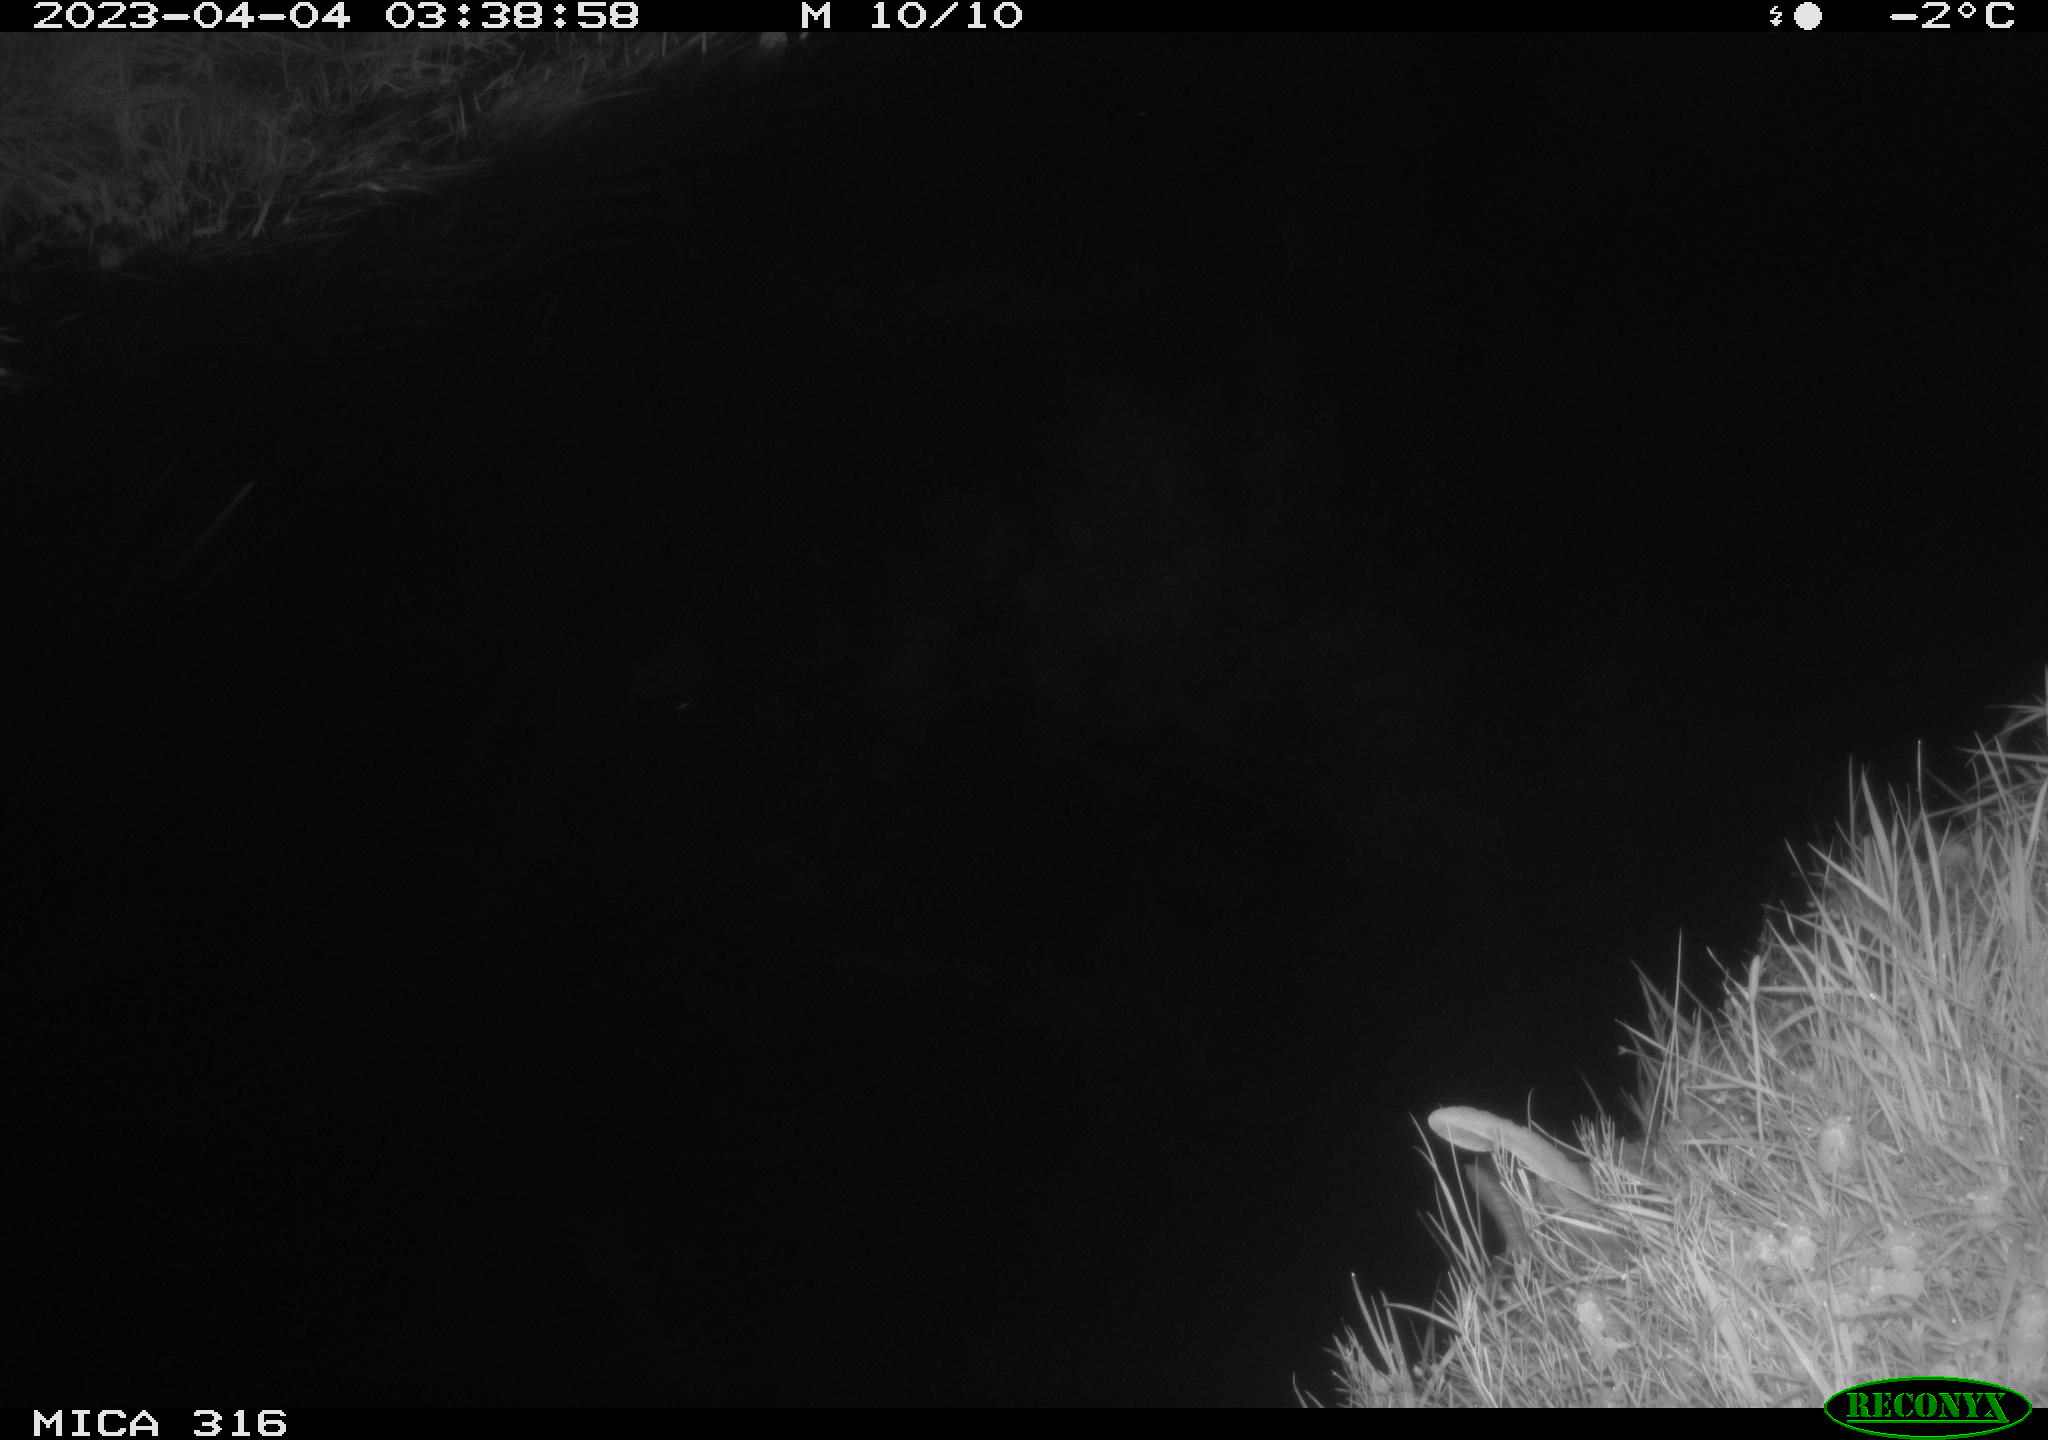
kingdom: Animalia
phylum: Chordata
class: Aves
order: Anseriformes
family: Anatidae
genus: Anas
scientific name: Anas
